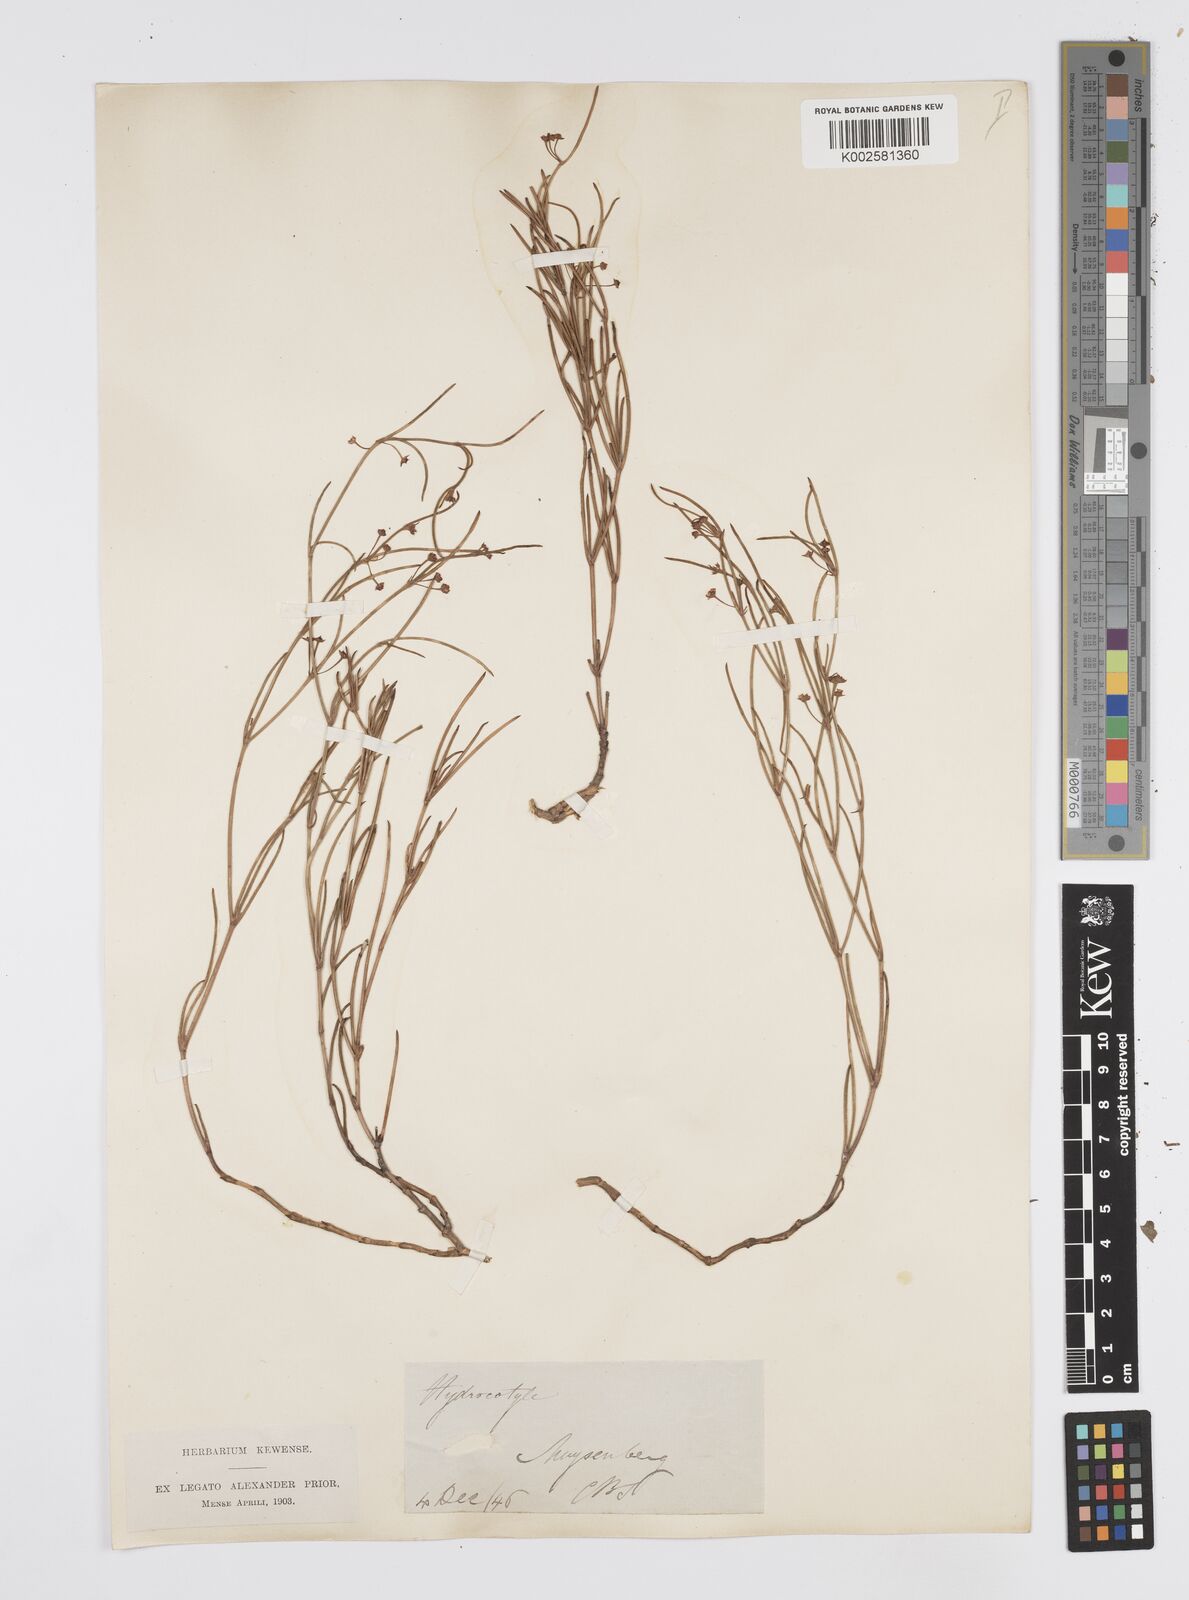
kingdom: Plantae
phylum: Tracheophyta
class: Magnoliopsida
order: Apiales
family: Apiaceae
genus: Centella
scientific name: Centella
